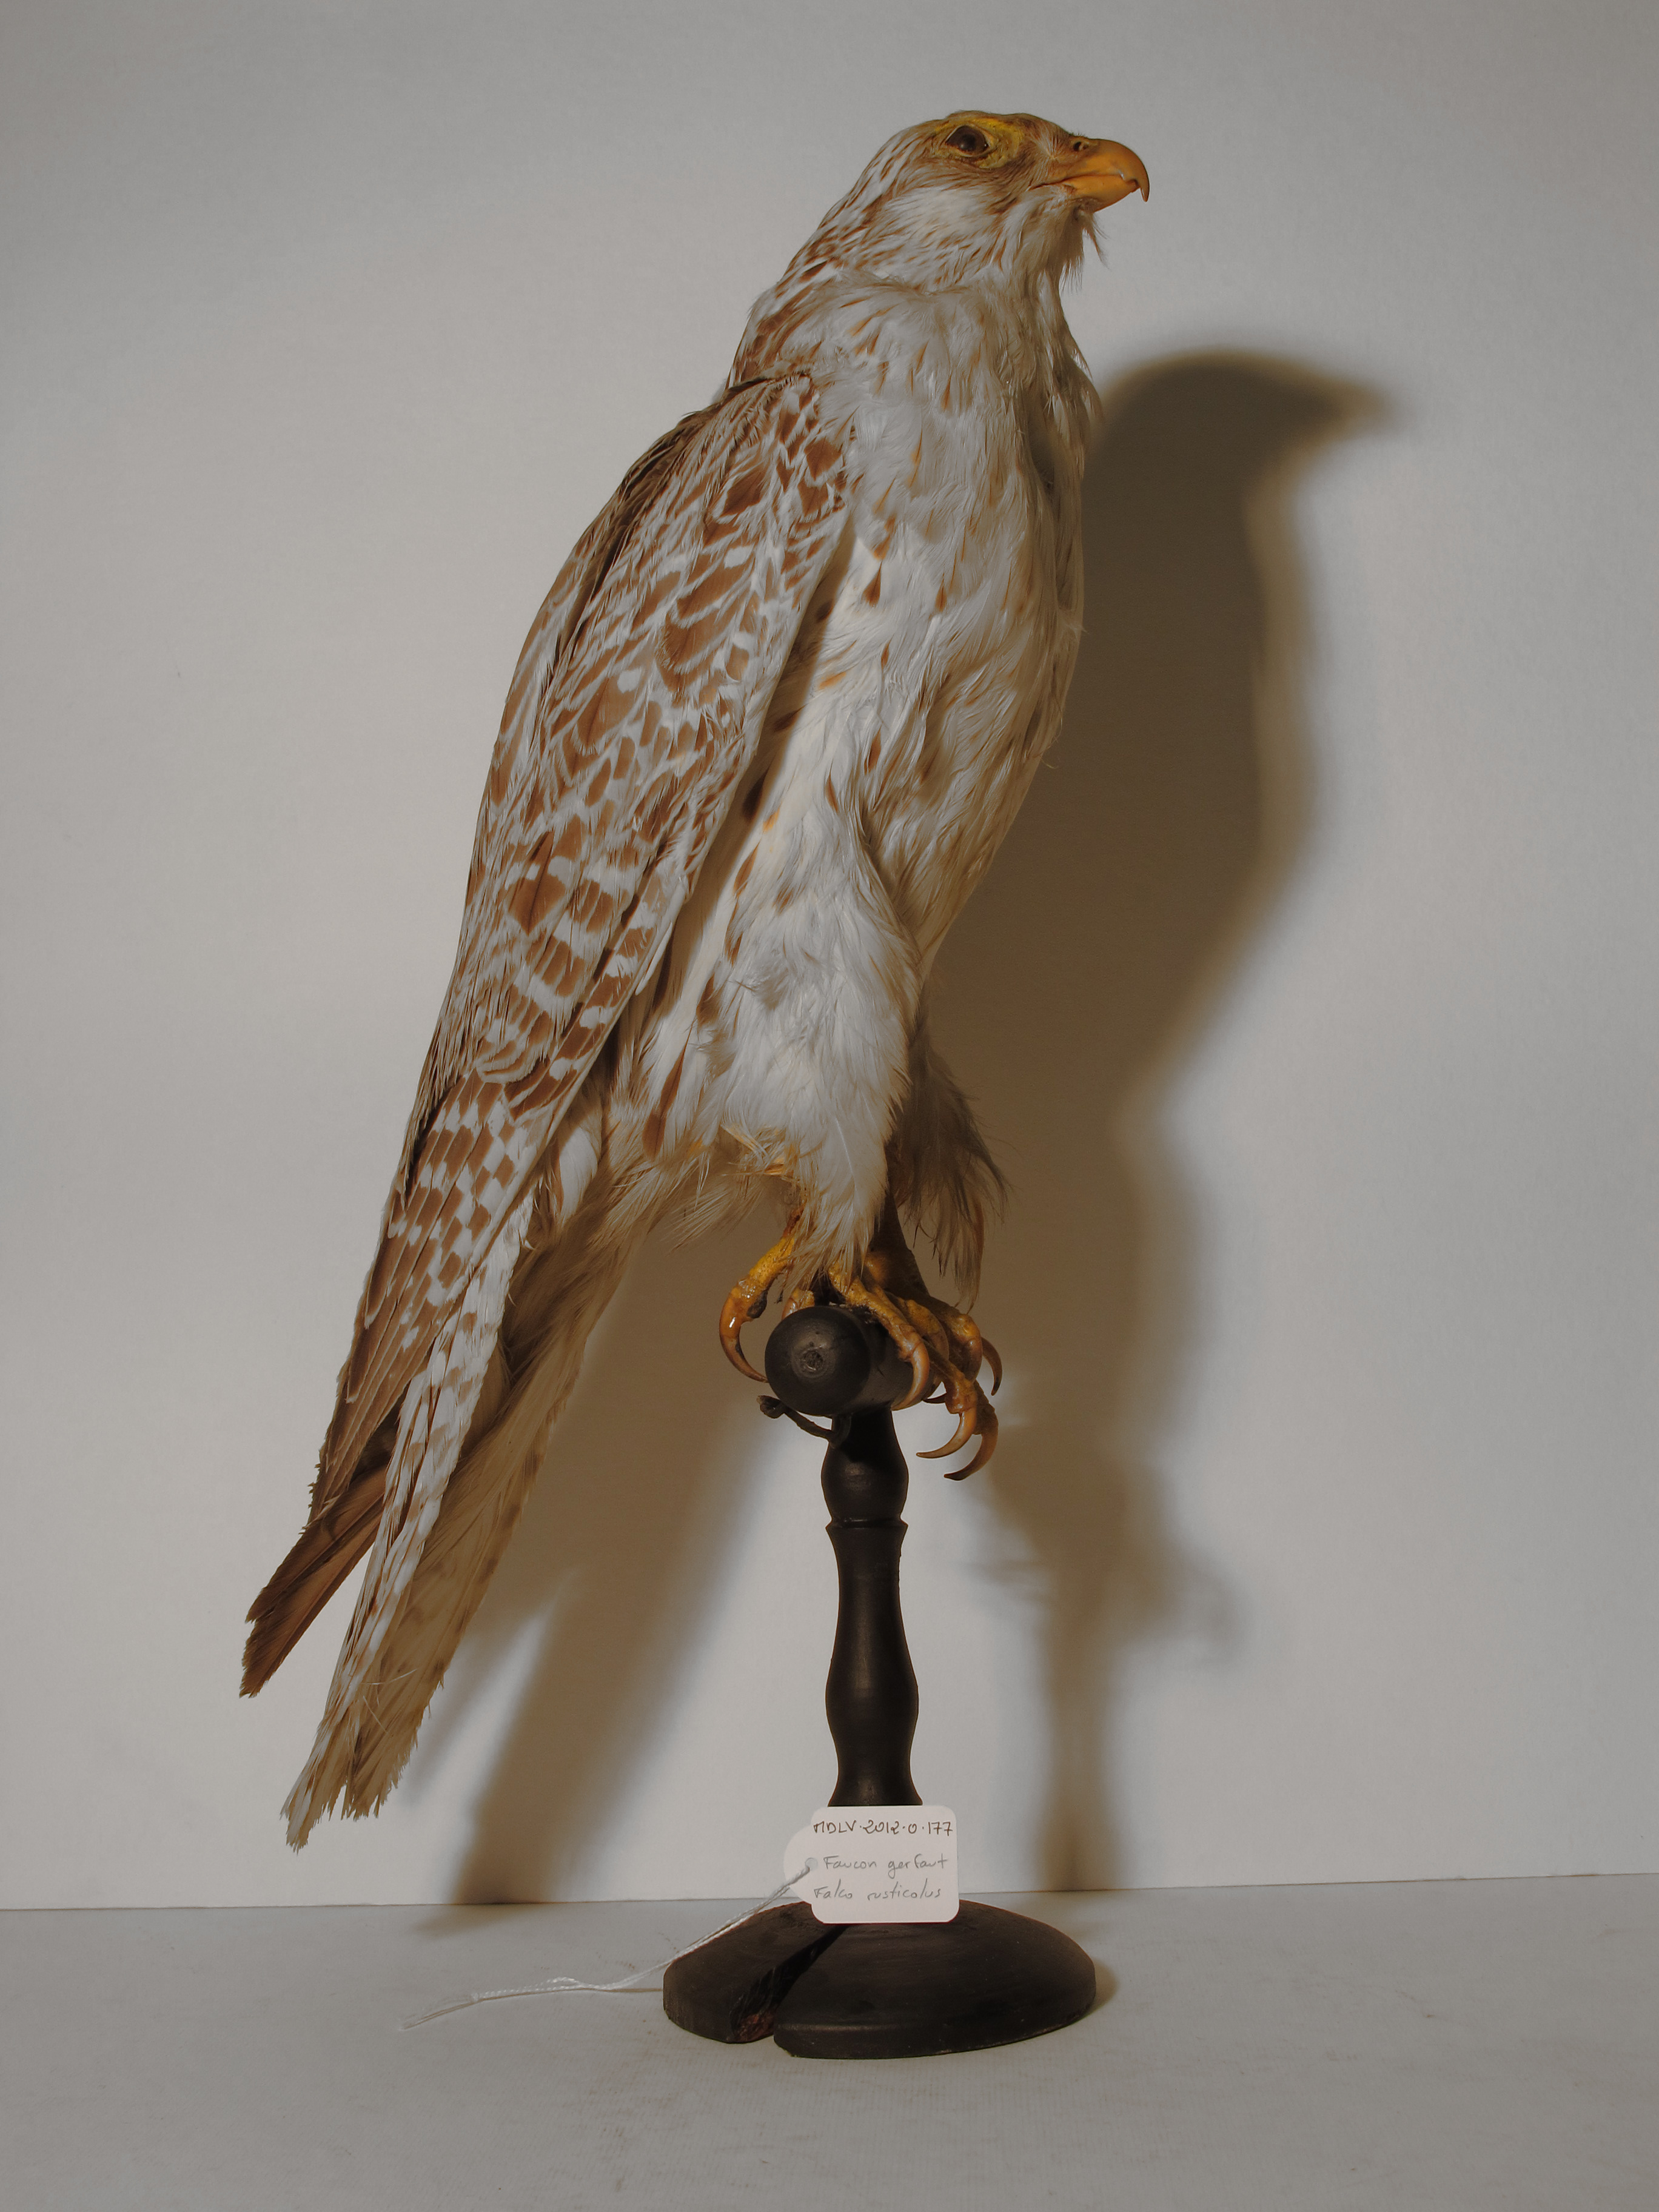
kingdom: Animalia
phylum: Chordata
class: Aves
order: Falconiformes
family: Falconidae
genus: Falco
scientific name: Falco rusticolus
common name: Gyrfalcon
